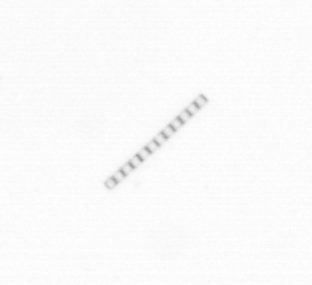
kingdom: Chromista
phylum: Ochrophyta
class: Bacillariophyceae
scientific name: Bacillariophyceae
